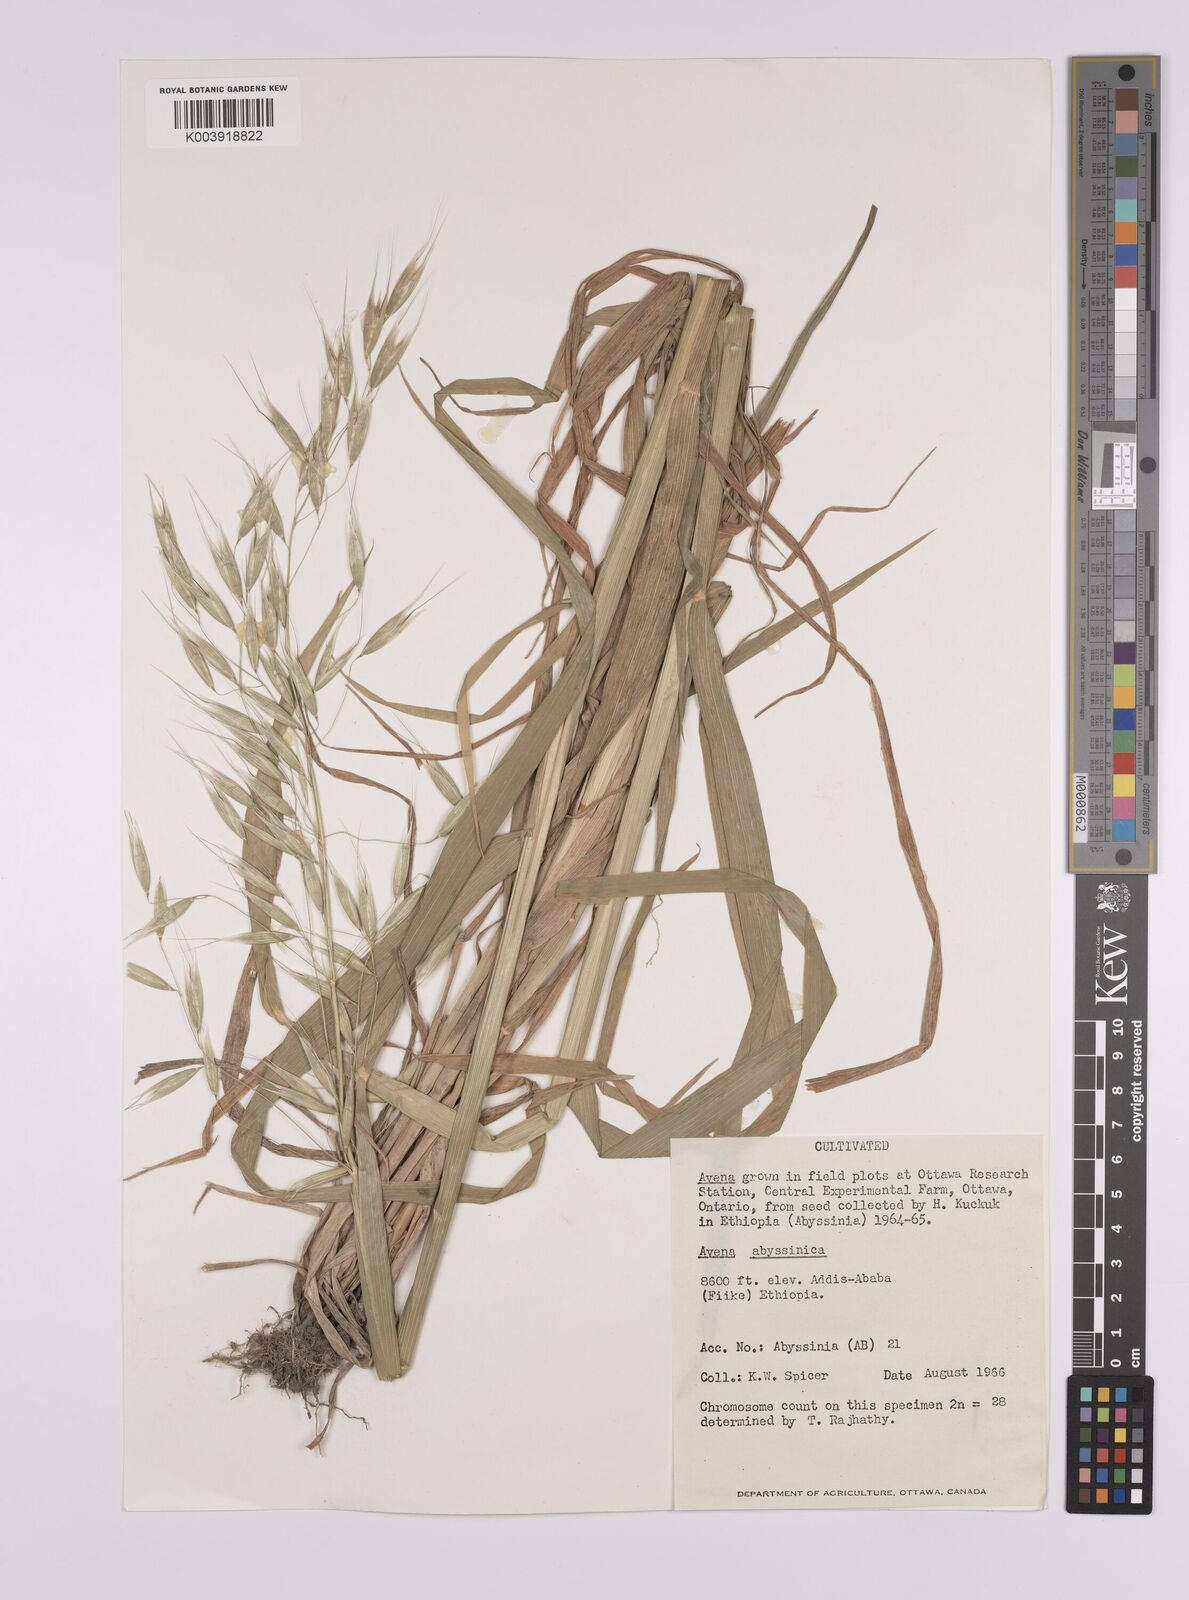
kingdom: Plantae
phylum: Tracheophyta
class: Liliopsida
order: Poales
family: Poaceae
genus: Avena
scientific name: Avena abyssinica
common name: Ethiopian oat
